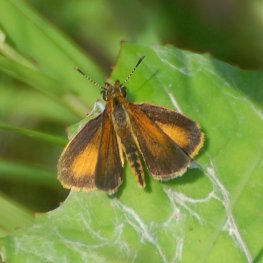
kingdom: Animalia
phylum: Arthropoda
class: Insecta
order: Lepidoptera
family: Hesperiidae
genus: Ancyloxypha
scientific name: Ancyloxypha numitor
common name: Least Skipper
